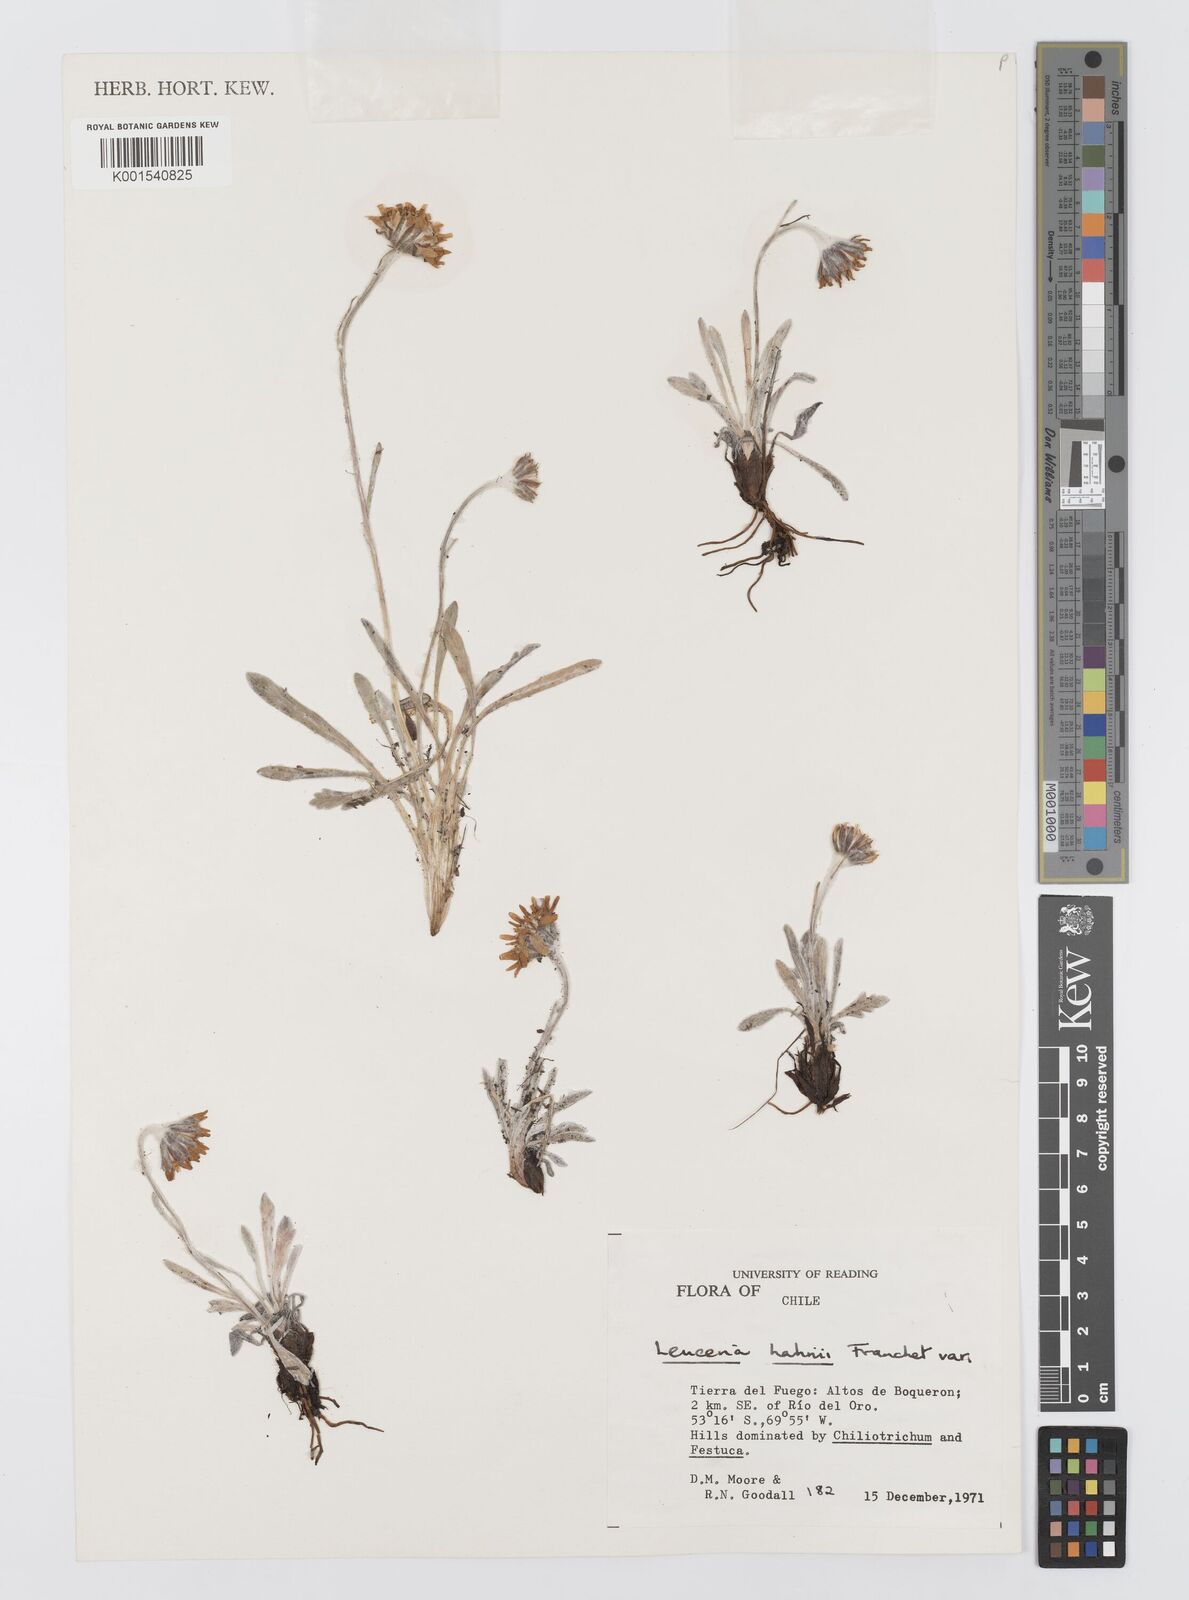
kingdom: Plantae
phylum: Tracheophyta
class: Magnoliopsida
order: Asterales
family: Asteraceae
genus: Leucheria
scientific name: Leucheria hahnii
